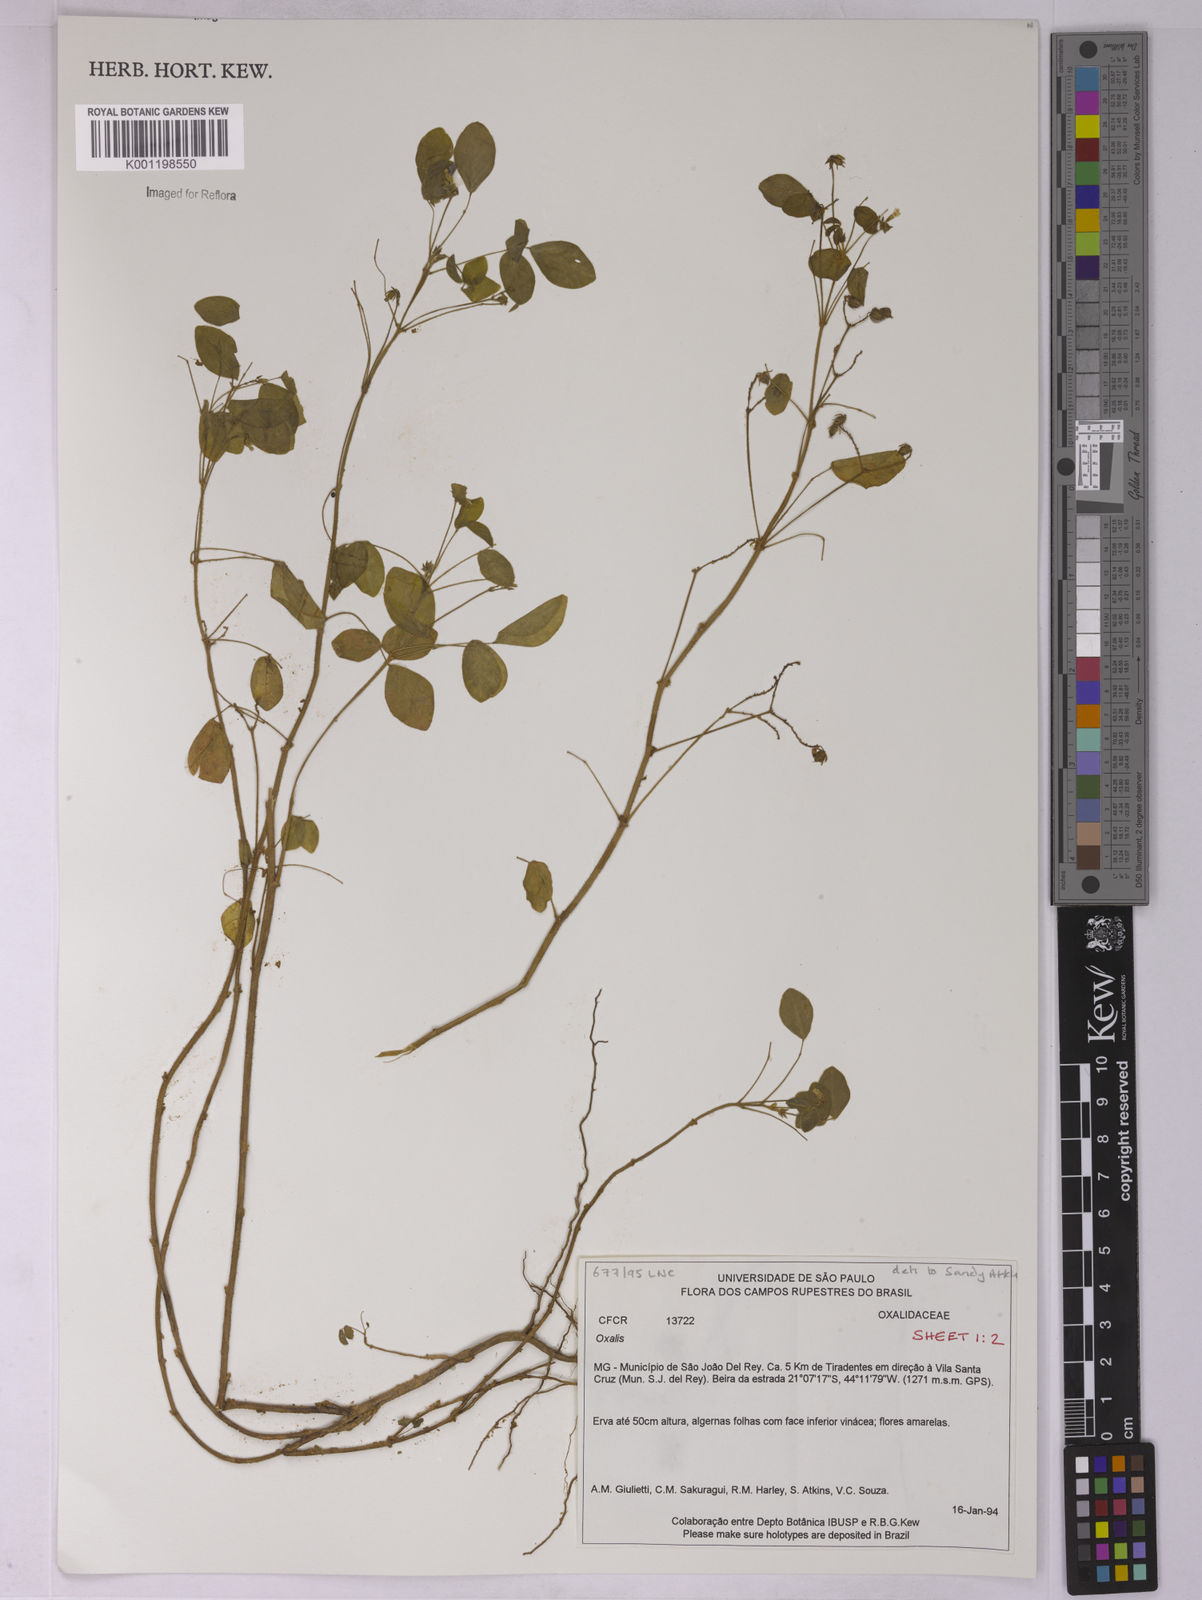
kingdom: Plantae
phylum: Tracheophyta
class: Magnoliopsida
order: Oxalidales
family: Oxalidaceae
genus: Oxalis
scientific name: Oxalis
